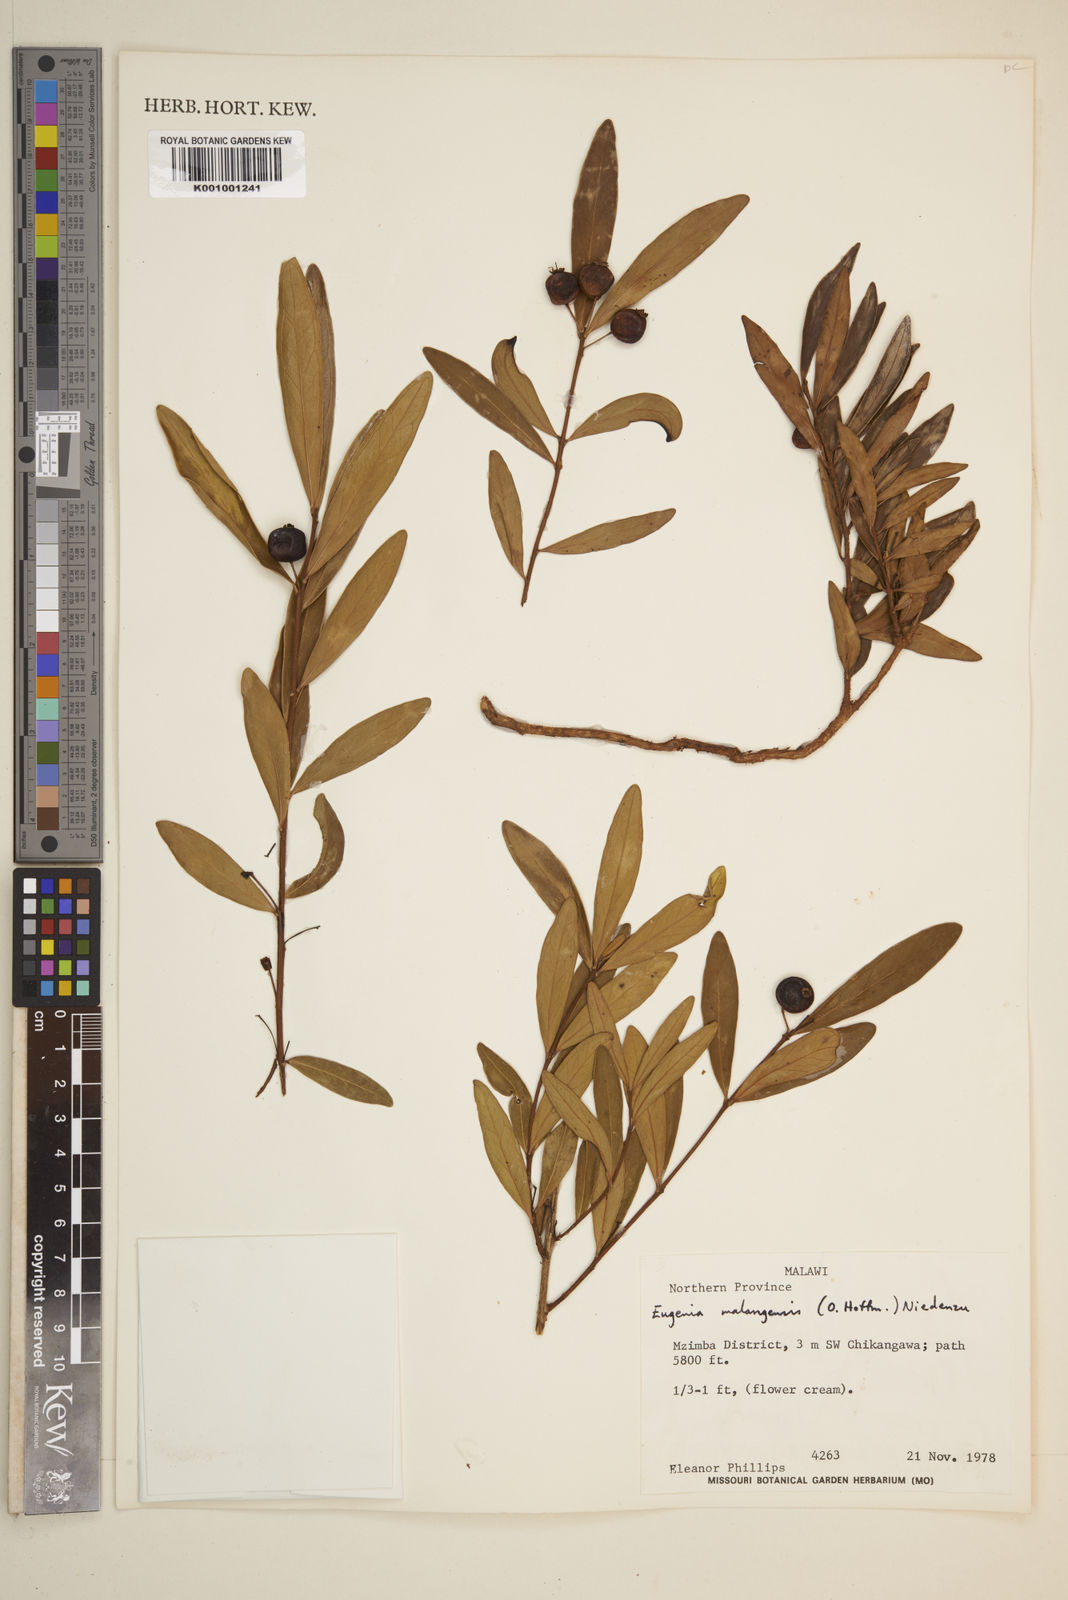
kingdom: Plantae
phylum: Tracheophyta
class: Magnoliopsida
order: Myrtales
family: Myrtaceae
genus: Eugenia
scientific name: Eugenia malangensis
